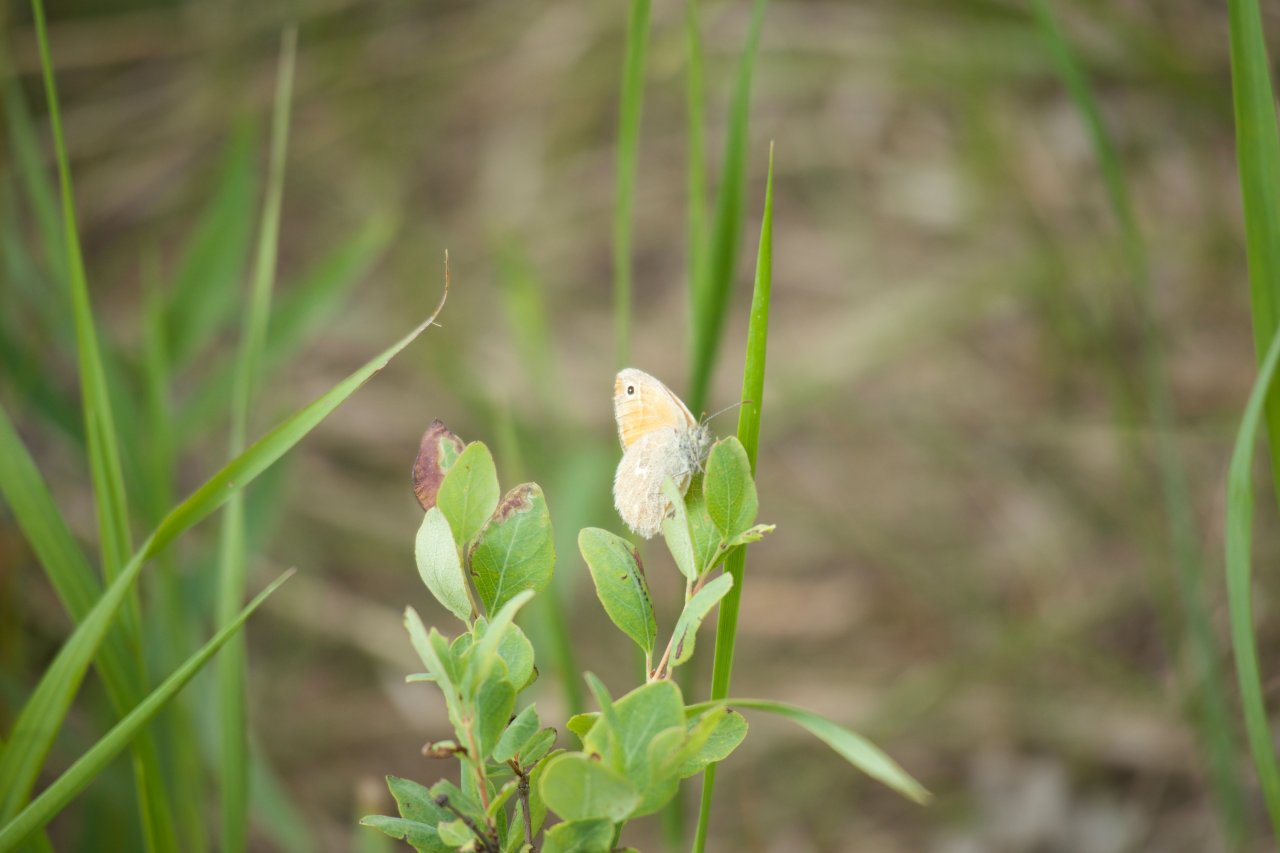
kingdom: Animalia
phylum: Arthropoda
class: Insecta
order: Lepidoptera
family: Nymphalidae
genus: Coenonympha
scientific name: Coenonympha tullia
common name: Large Heath
